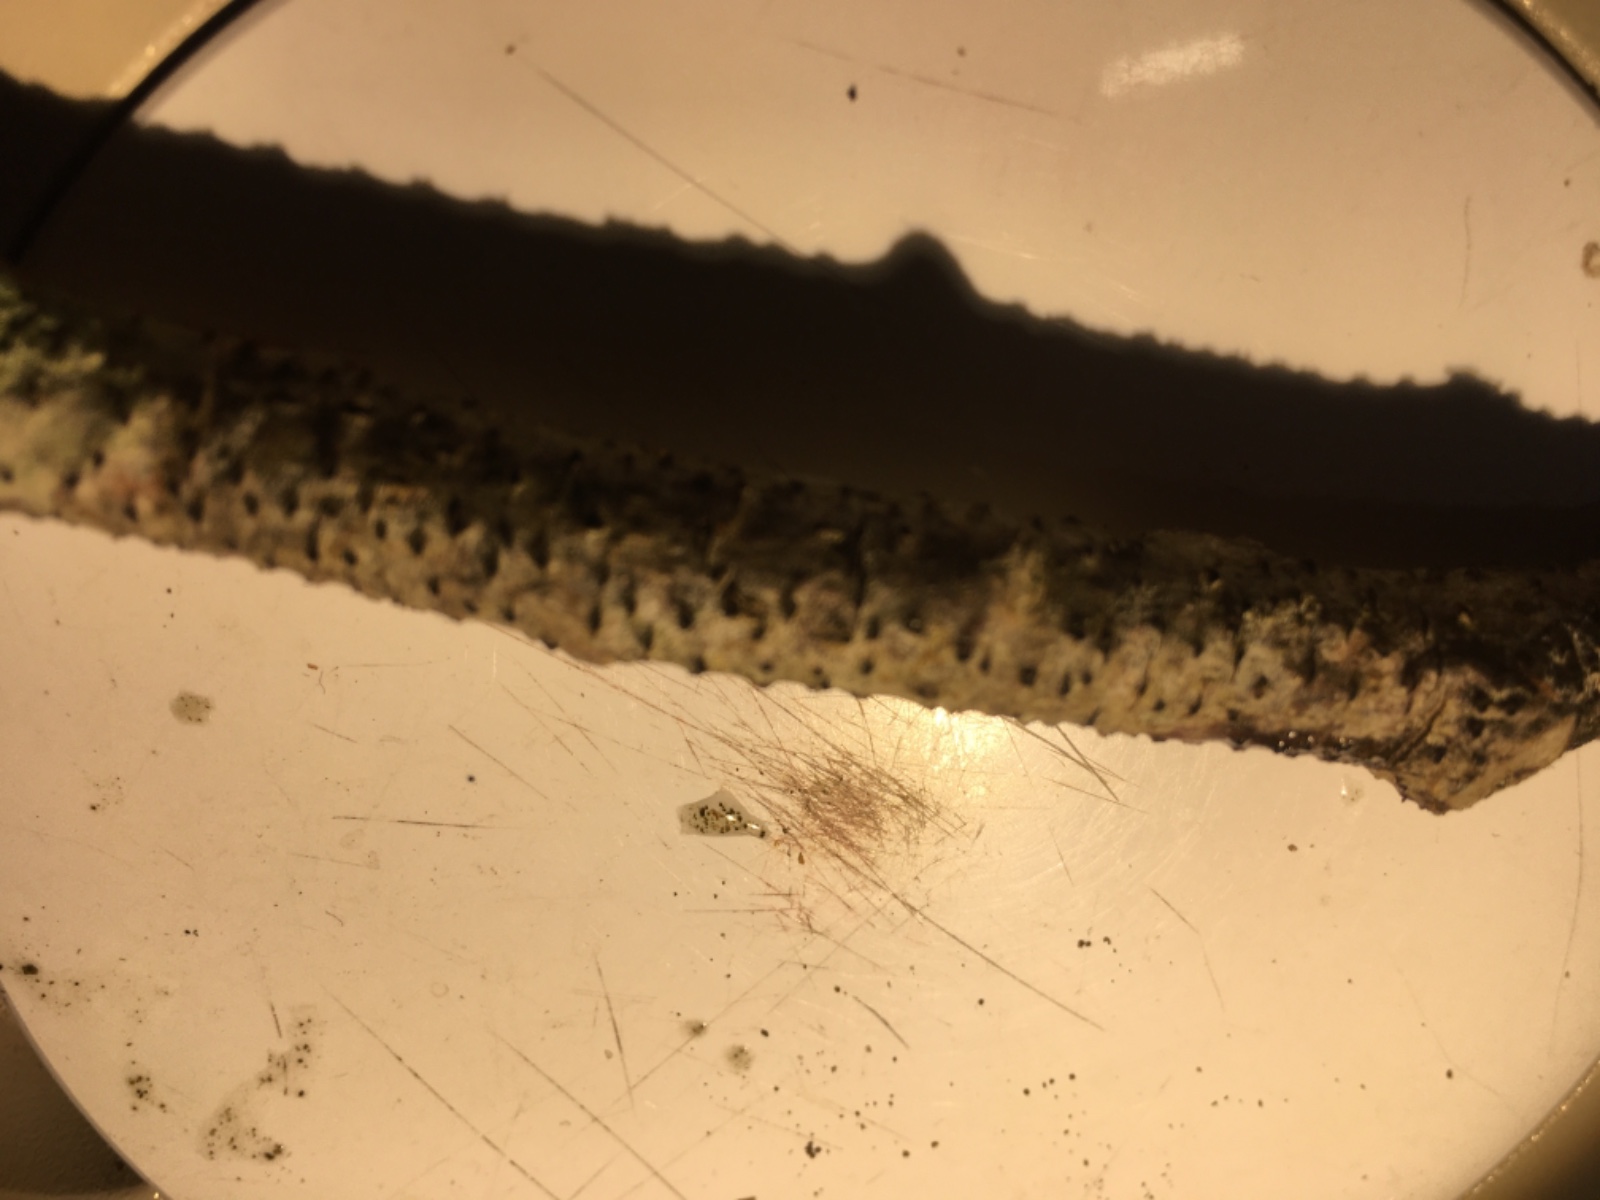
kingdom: Fungi
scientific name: Fungi
